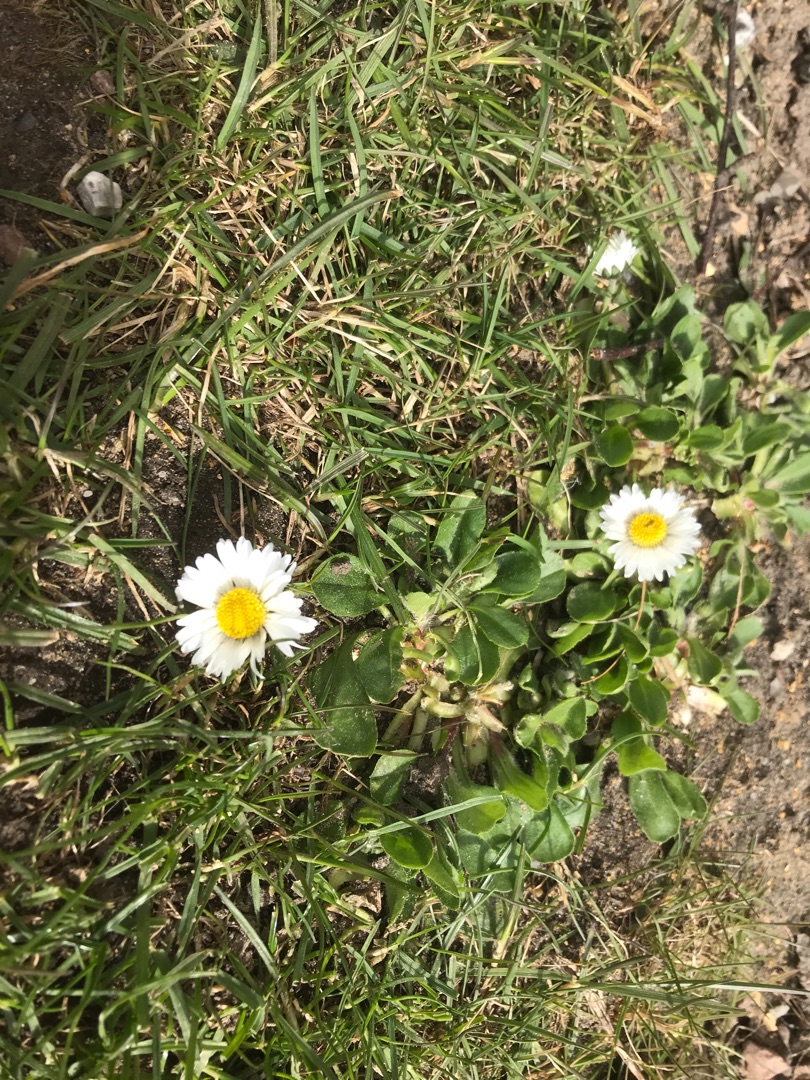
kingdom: Plantae
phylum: Tracheophyta
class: Magnoliopsida
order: Asterales
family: Asteraceae
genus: Bellis
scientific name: Bellis perennis
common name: Tusindfryd
